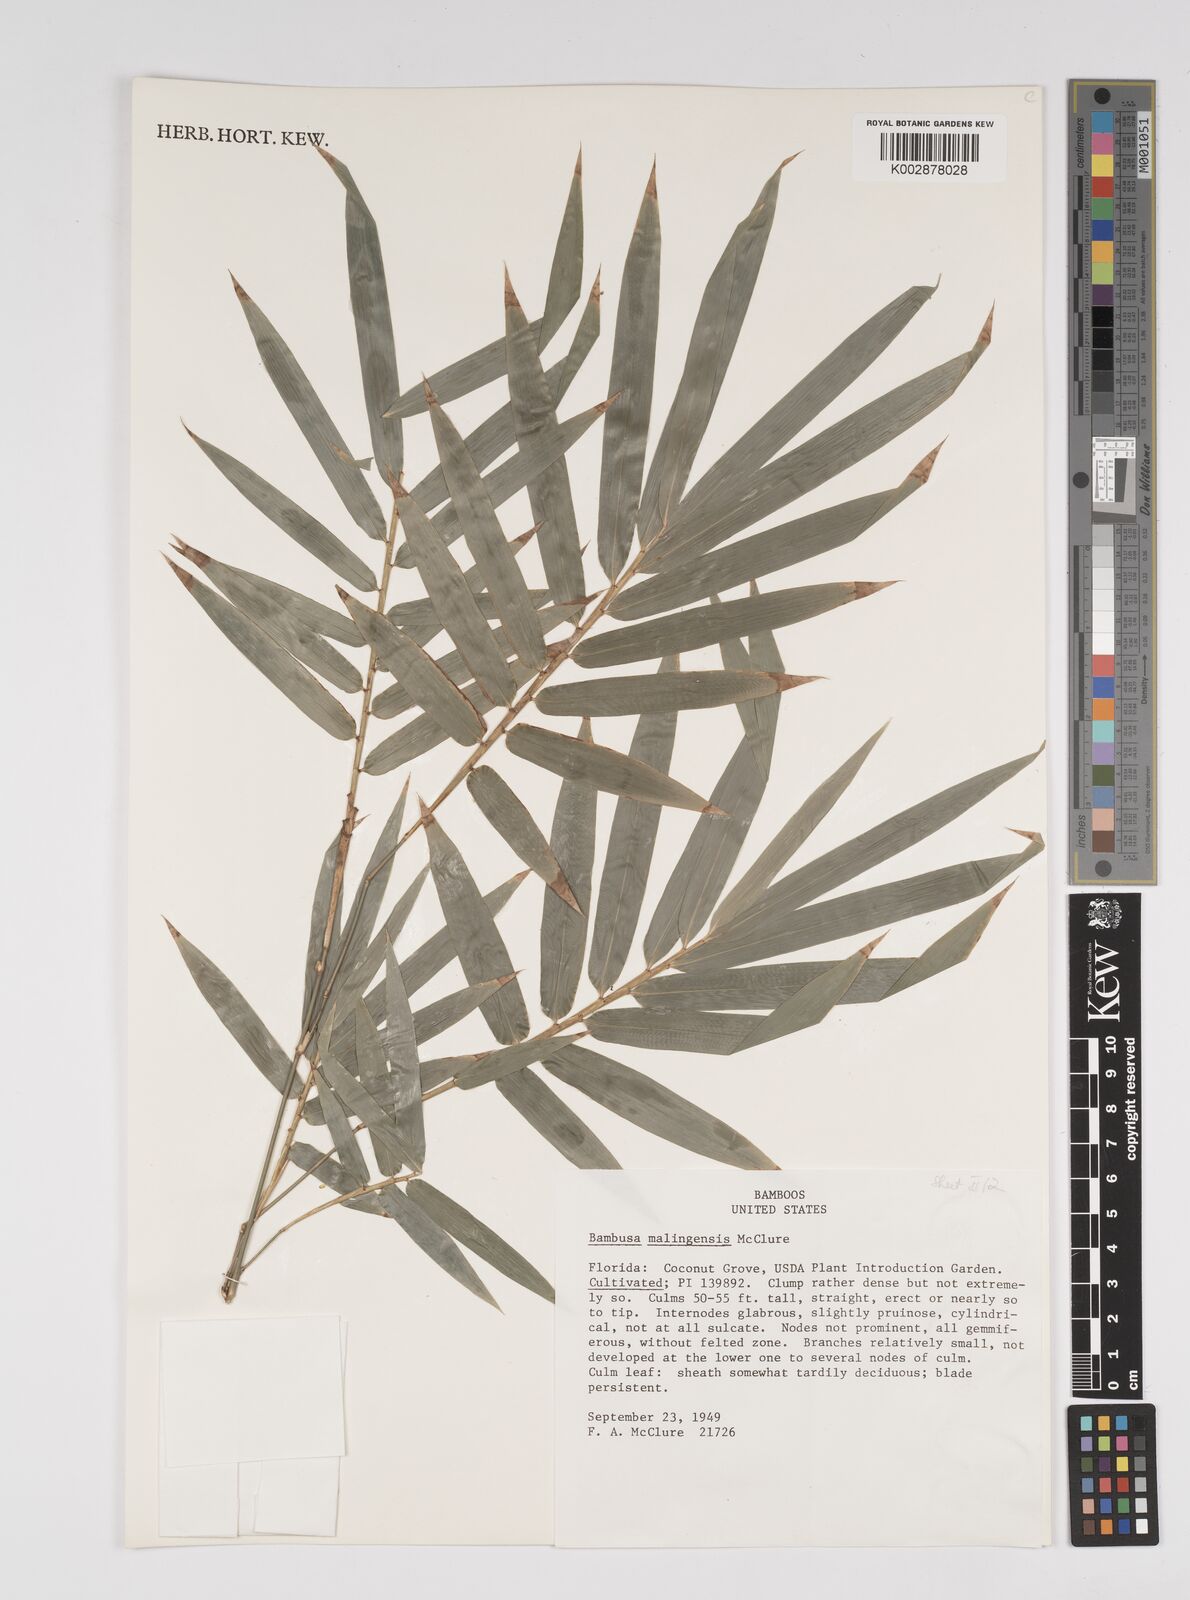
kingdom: Plantae
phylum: Tracheophyta
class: Liliopsida
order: Poales
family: Poaceae
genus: Bambusa
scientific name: Bambusa malingensis
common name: Maling bamboo
